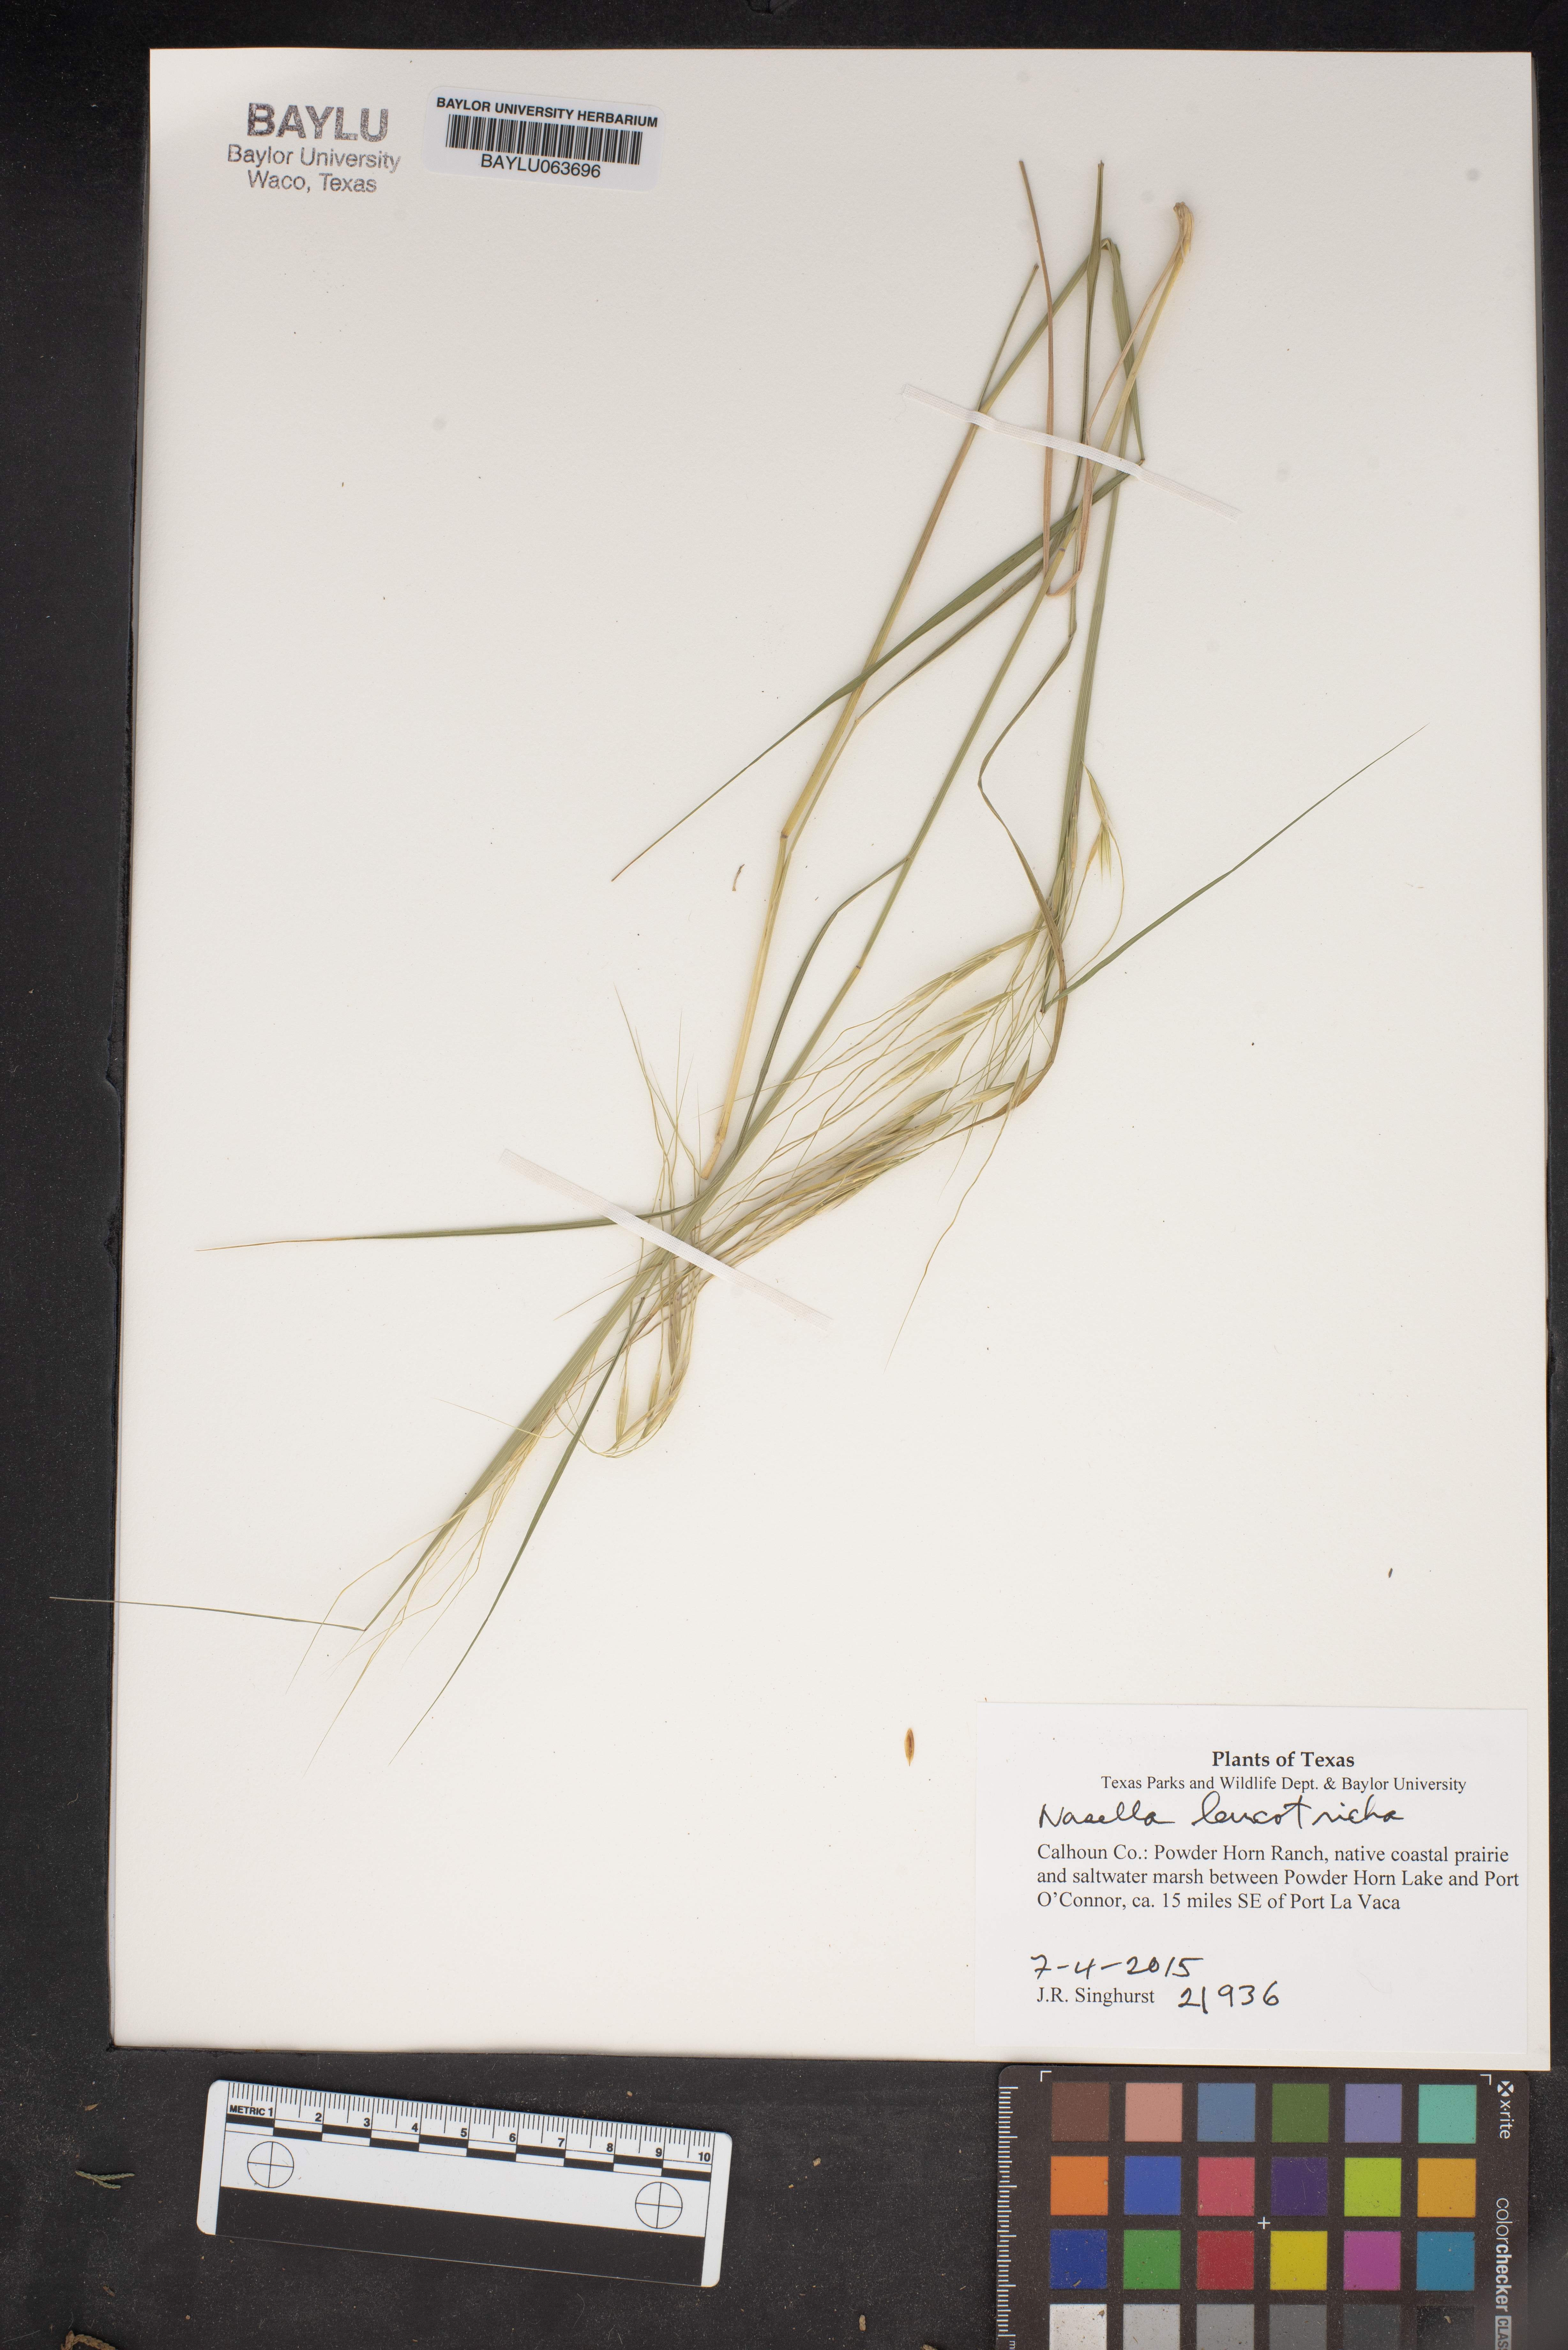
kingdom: Plantae
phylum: Tracheophyta
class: Liliopsida
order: Poales
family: Poaceae
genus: Nassella
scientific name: Nassella leucotricha
